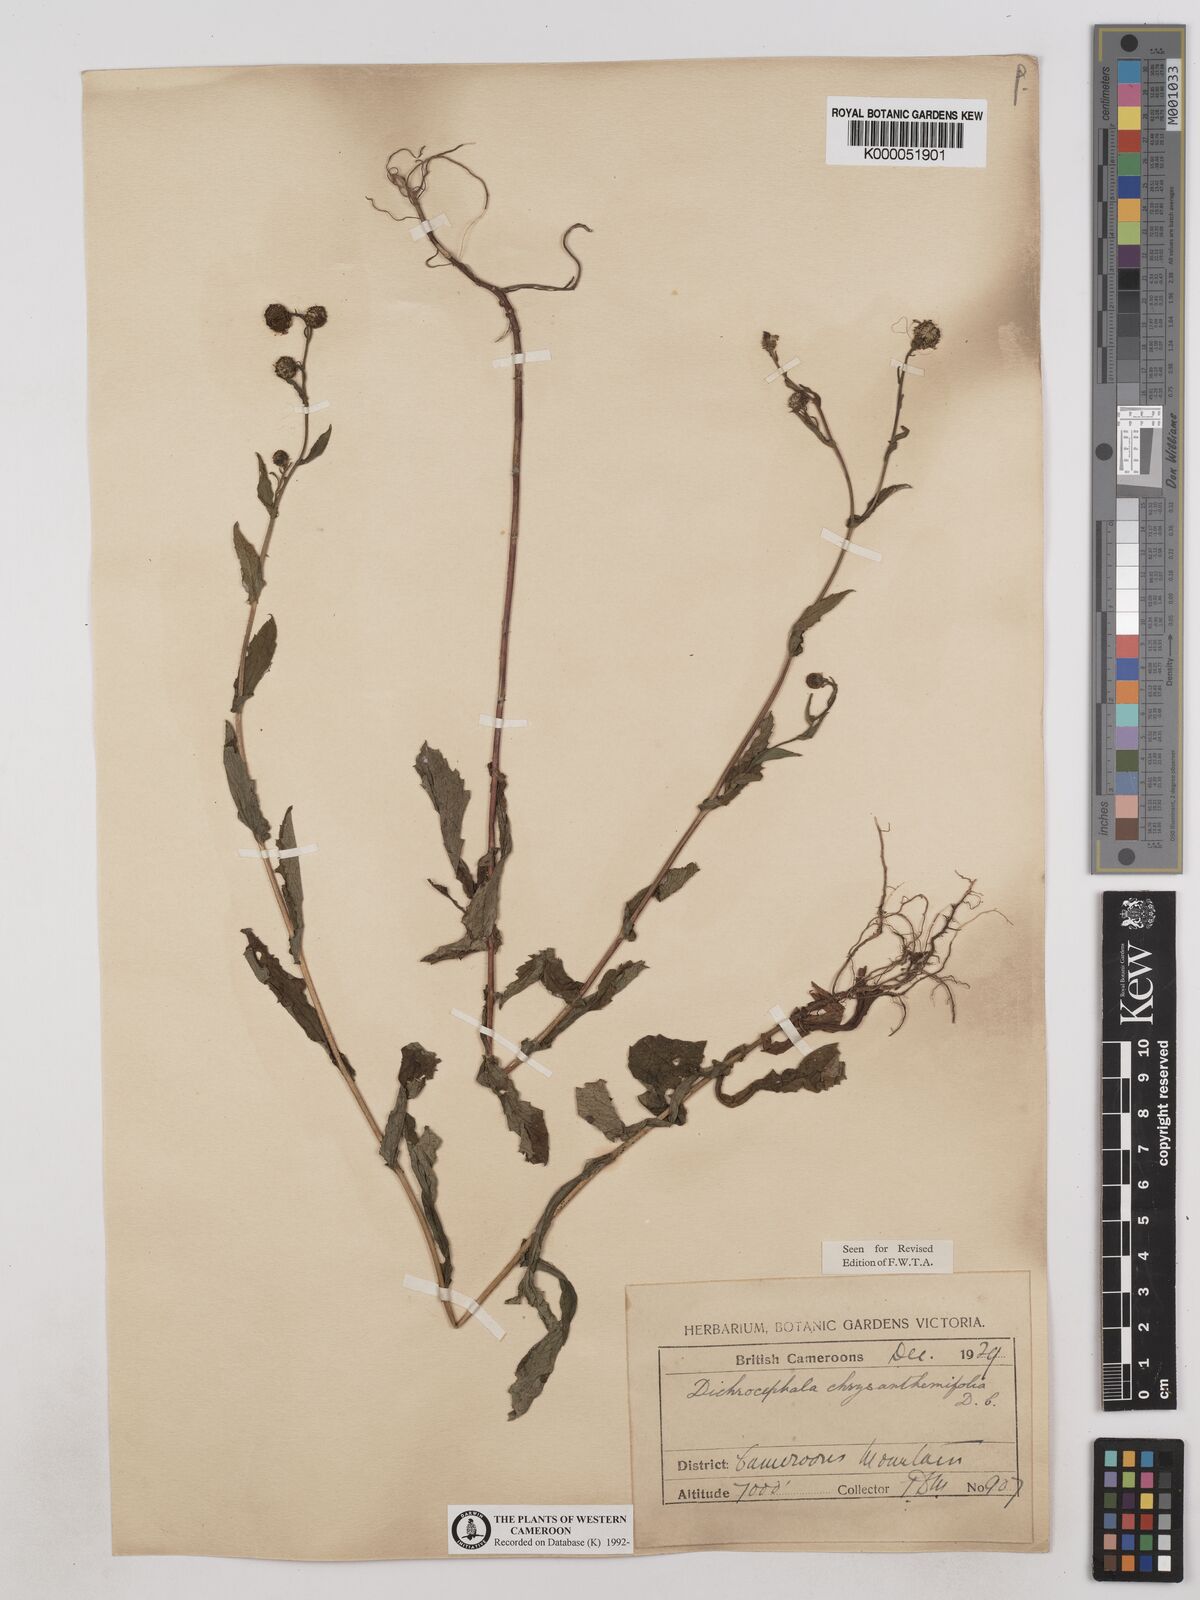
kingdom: Plantae
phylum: Tracheophyta
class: Magnoliopsida
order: Asterales
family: Asteraceae
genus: Dichrocephala
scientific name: Dichrocephala chrysanthemifolia
